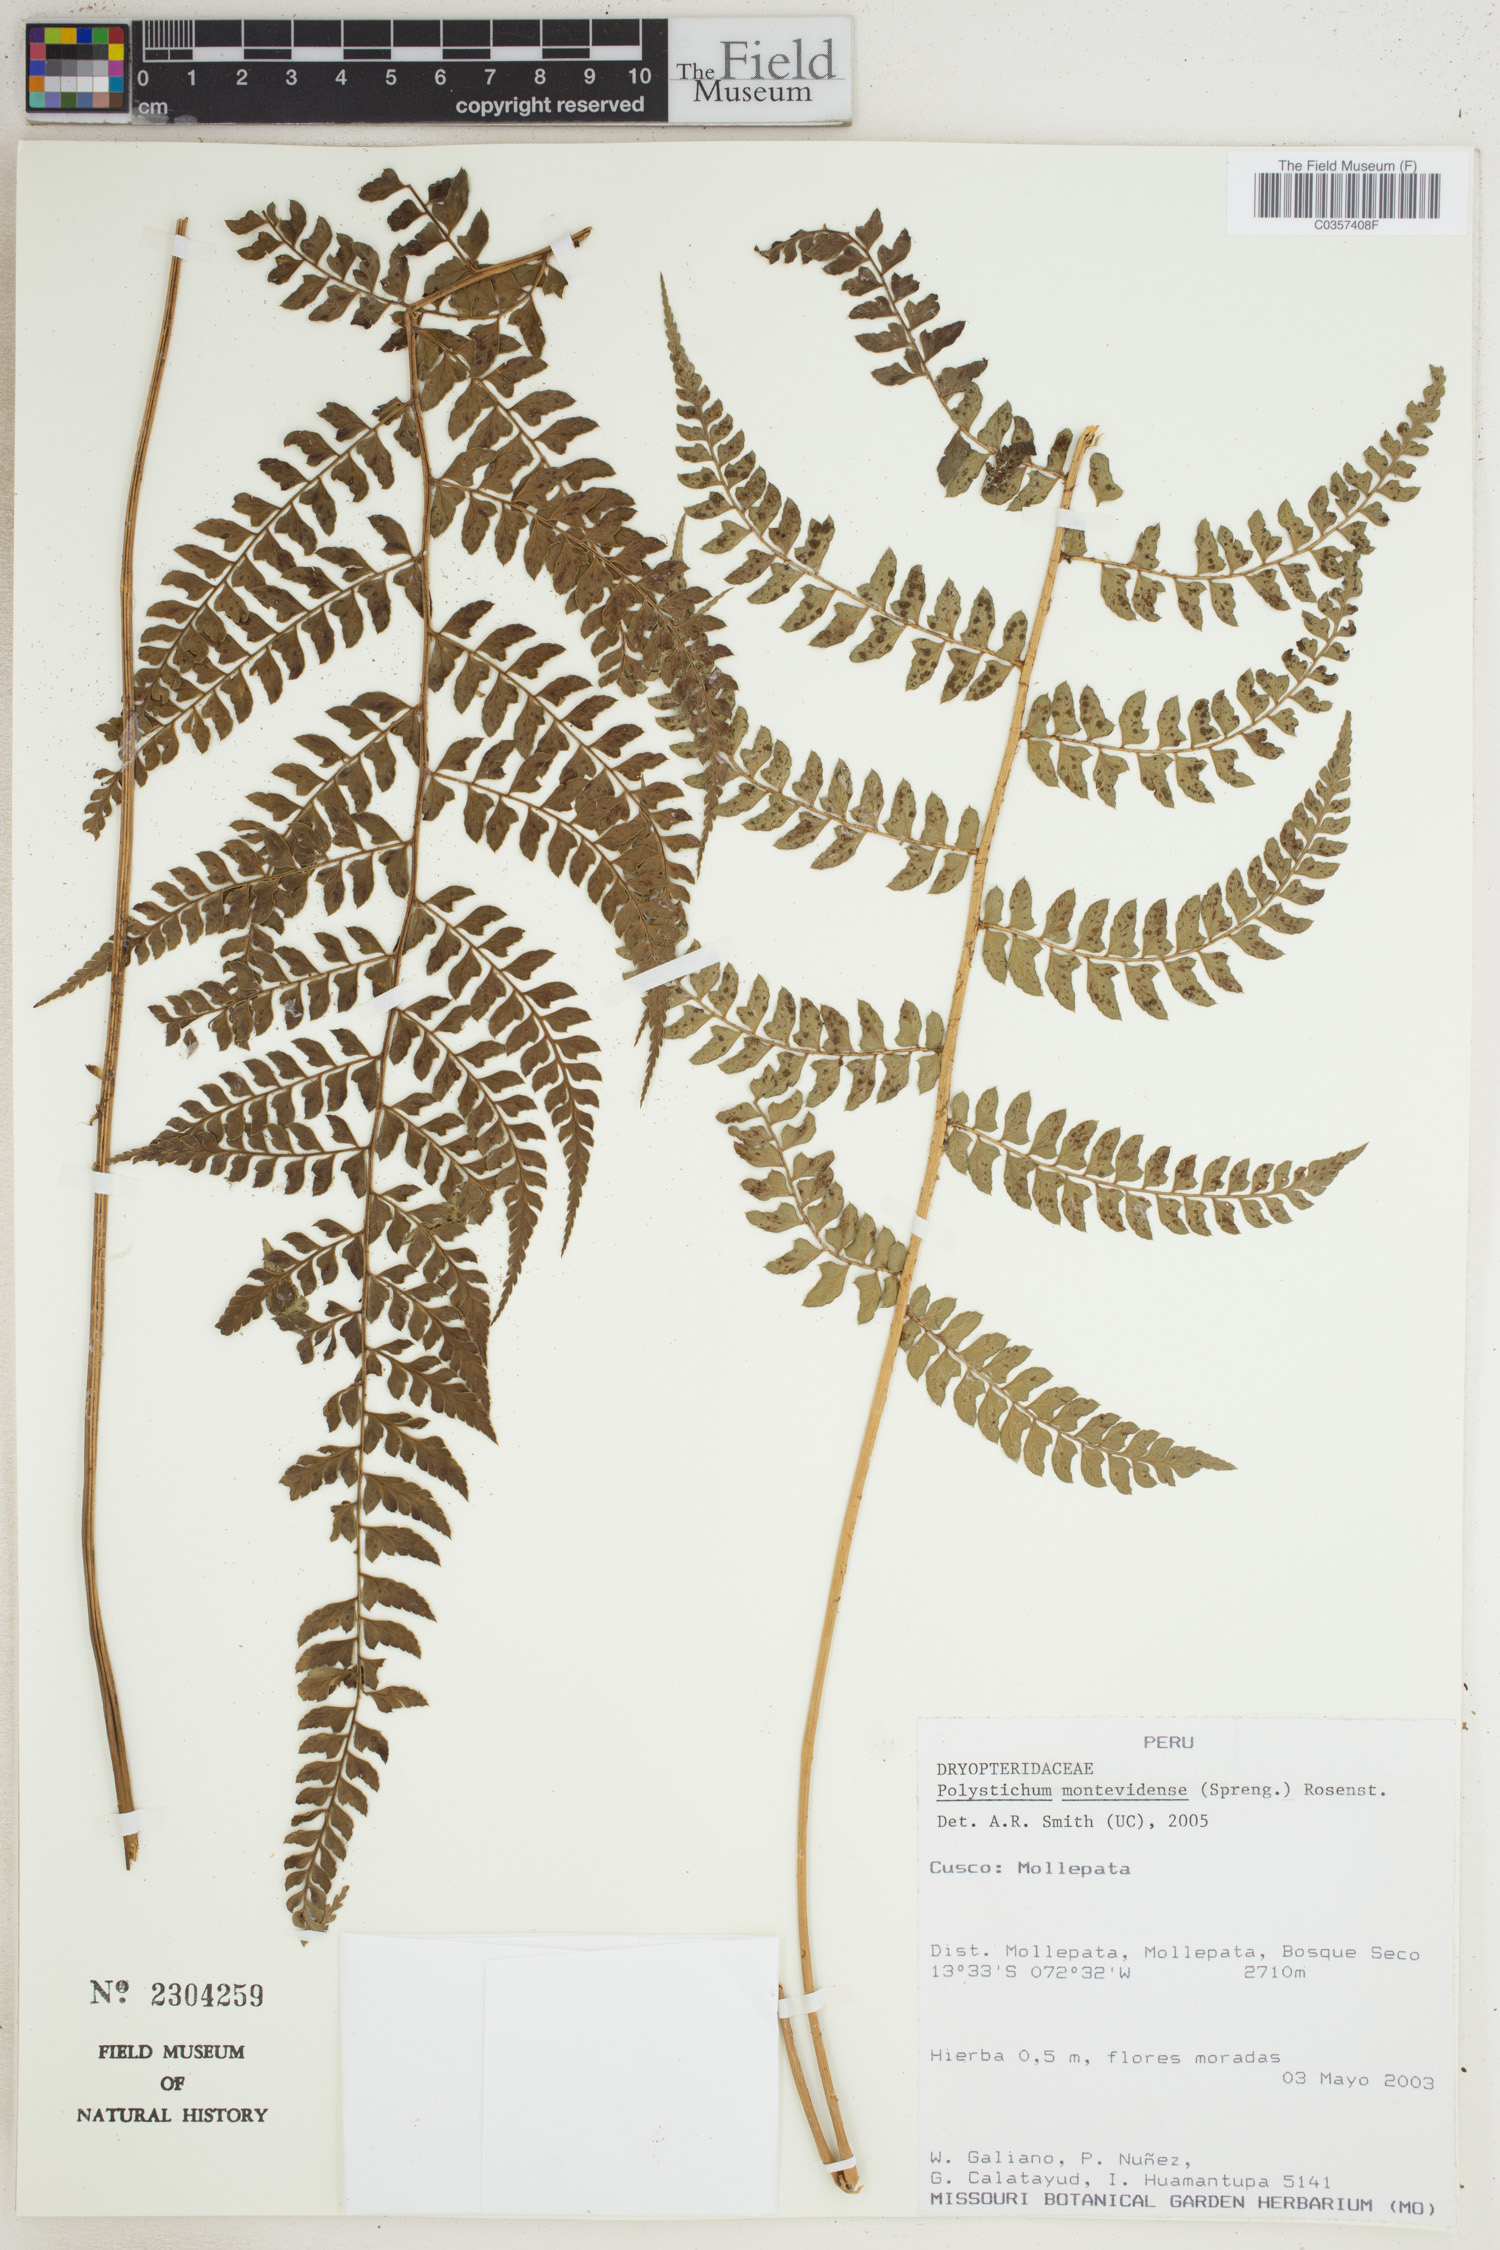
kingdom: Plantae
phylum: Tracheophyta
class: Polypodiopsida
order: Polypodiales
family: Dryopteridaceae
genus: Polystichum
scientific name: Polystichum montevidense
